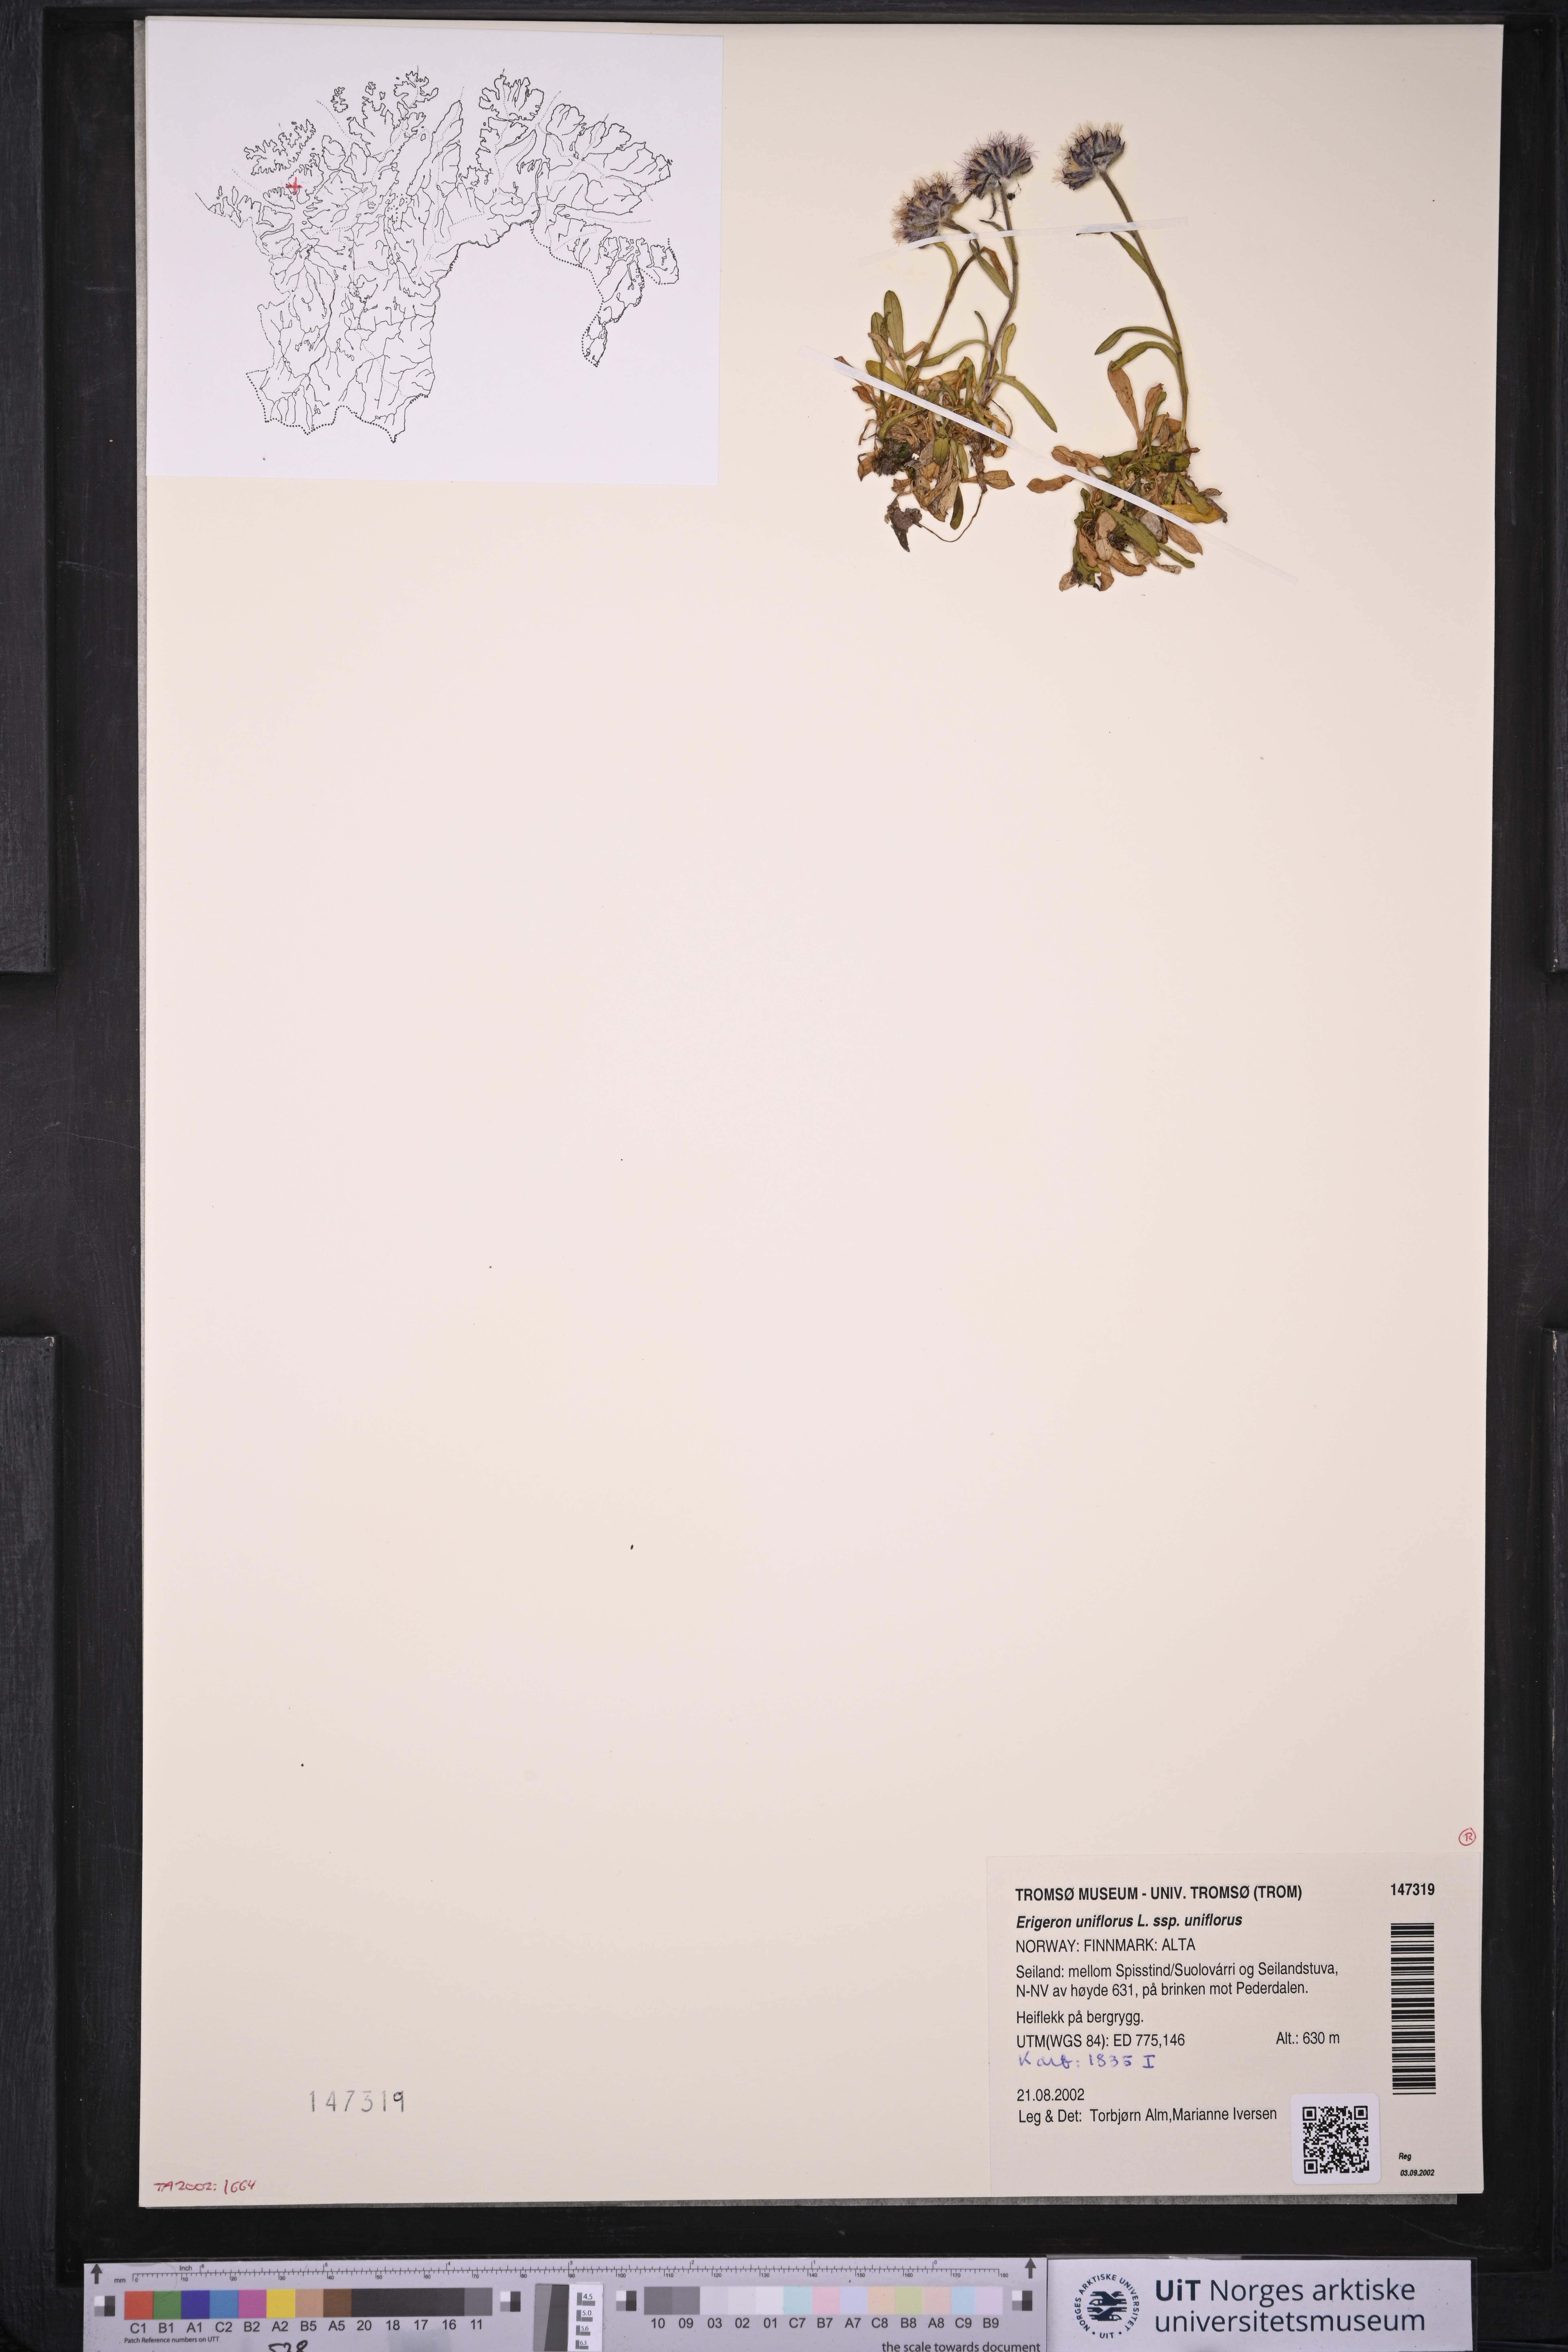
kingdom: Plantae
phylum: Tracheophyta
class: Magnoliopsida
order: Asterales
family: Asteraceae
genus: Erigeron
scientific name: Erigeron uniflorus
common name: Northern daisy
